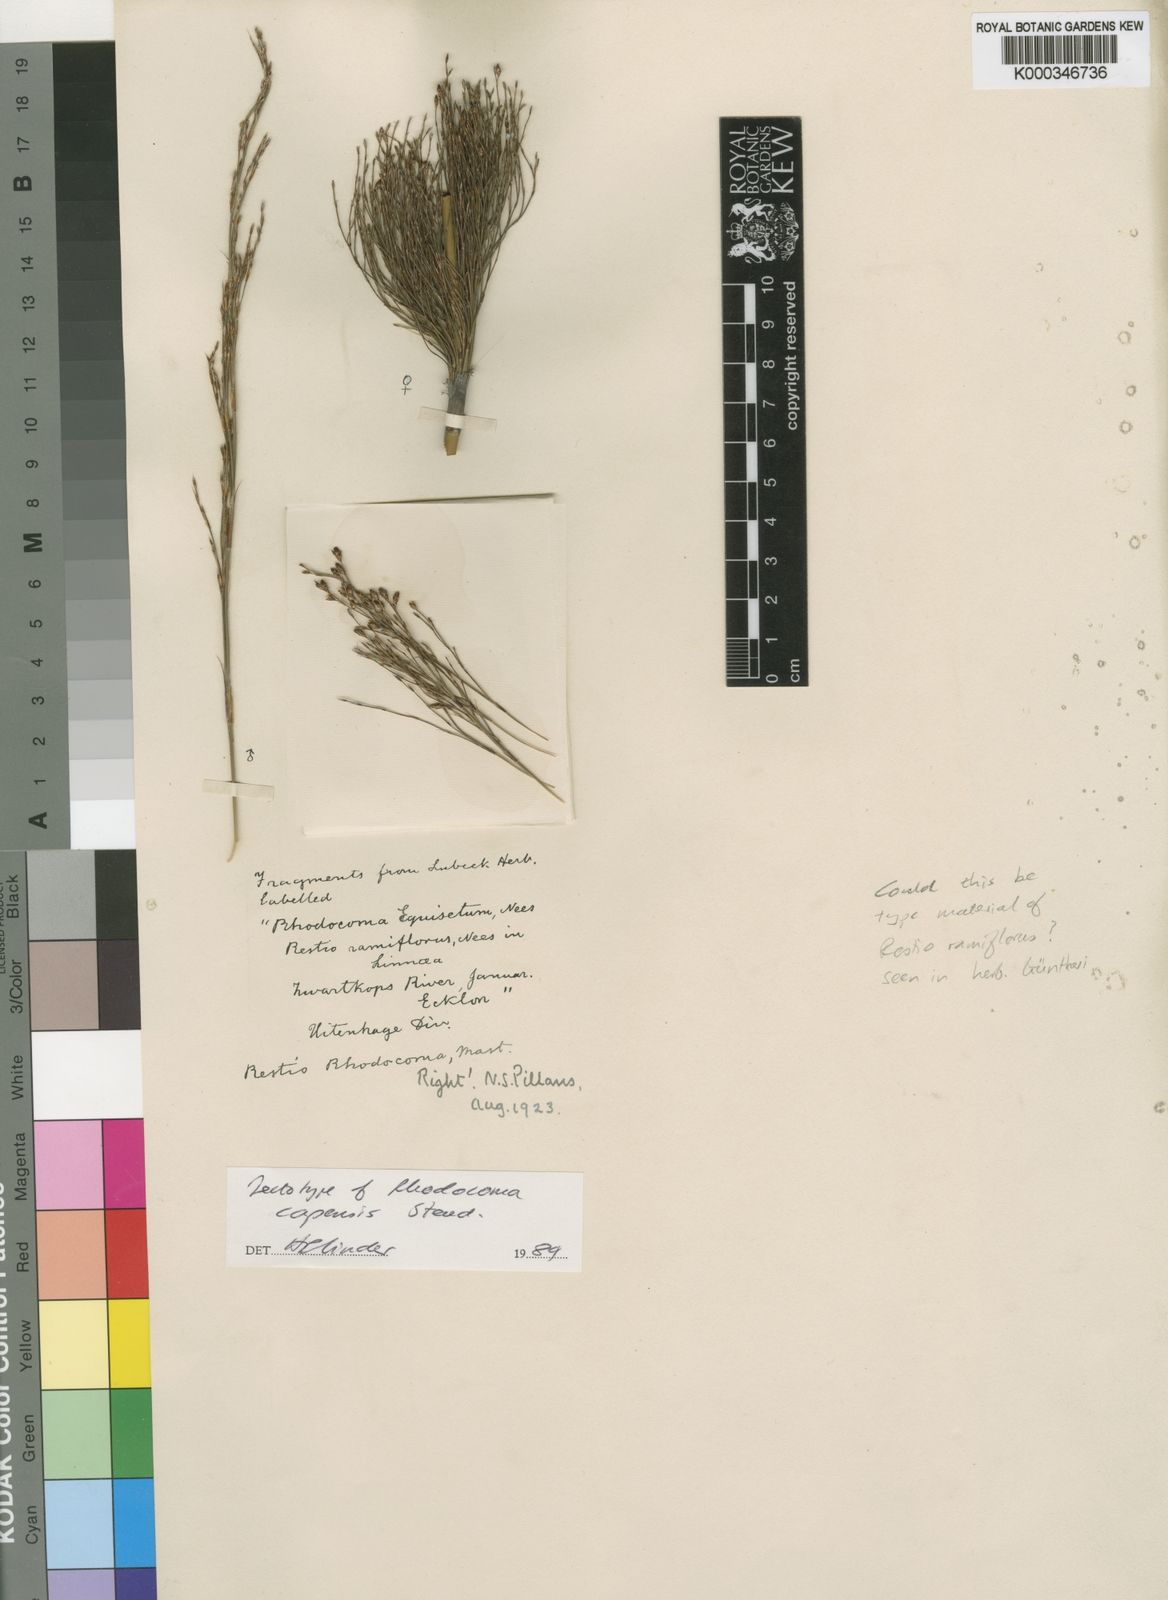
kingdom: Plantae
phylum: Tracheophyta
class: Liliopsida
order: Poales
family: Restionaceae
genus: Rhodocoma
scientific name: Rhodocoma capensis
